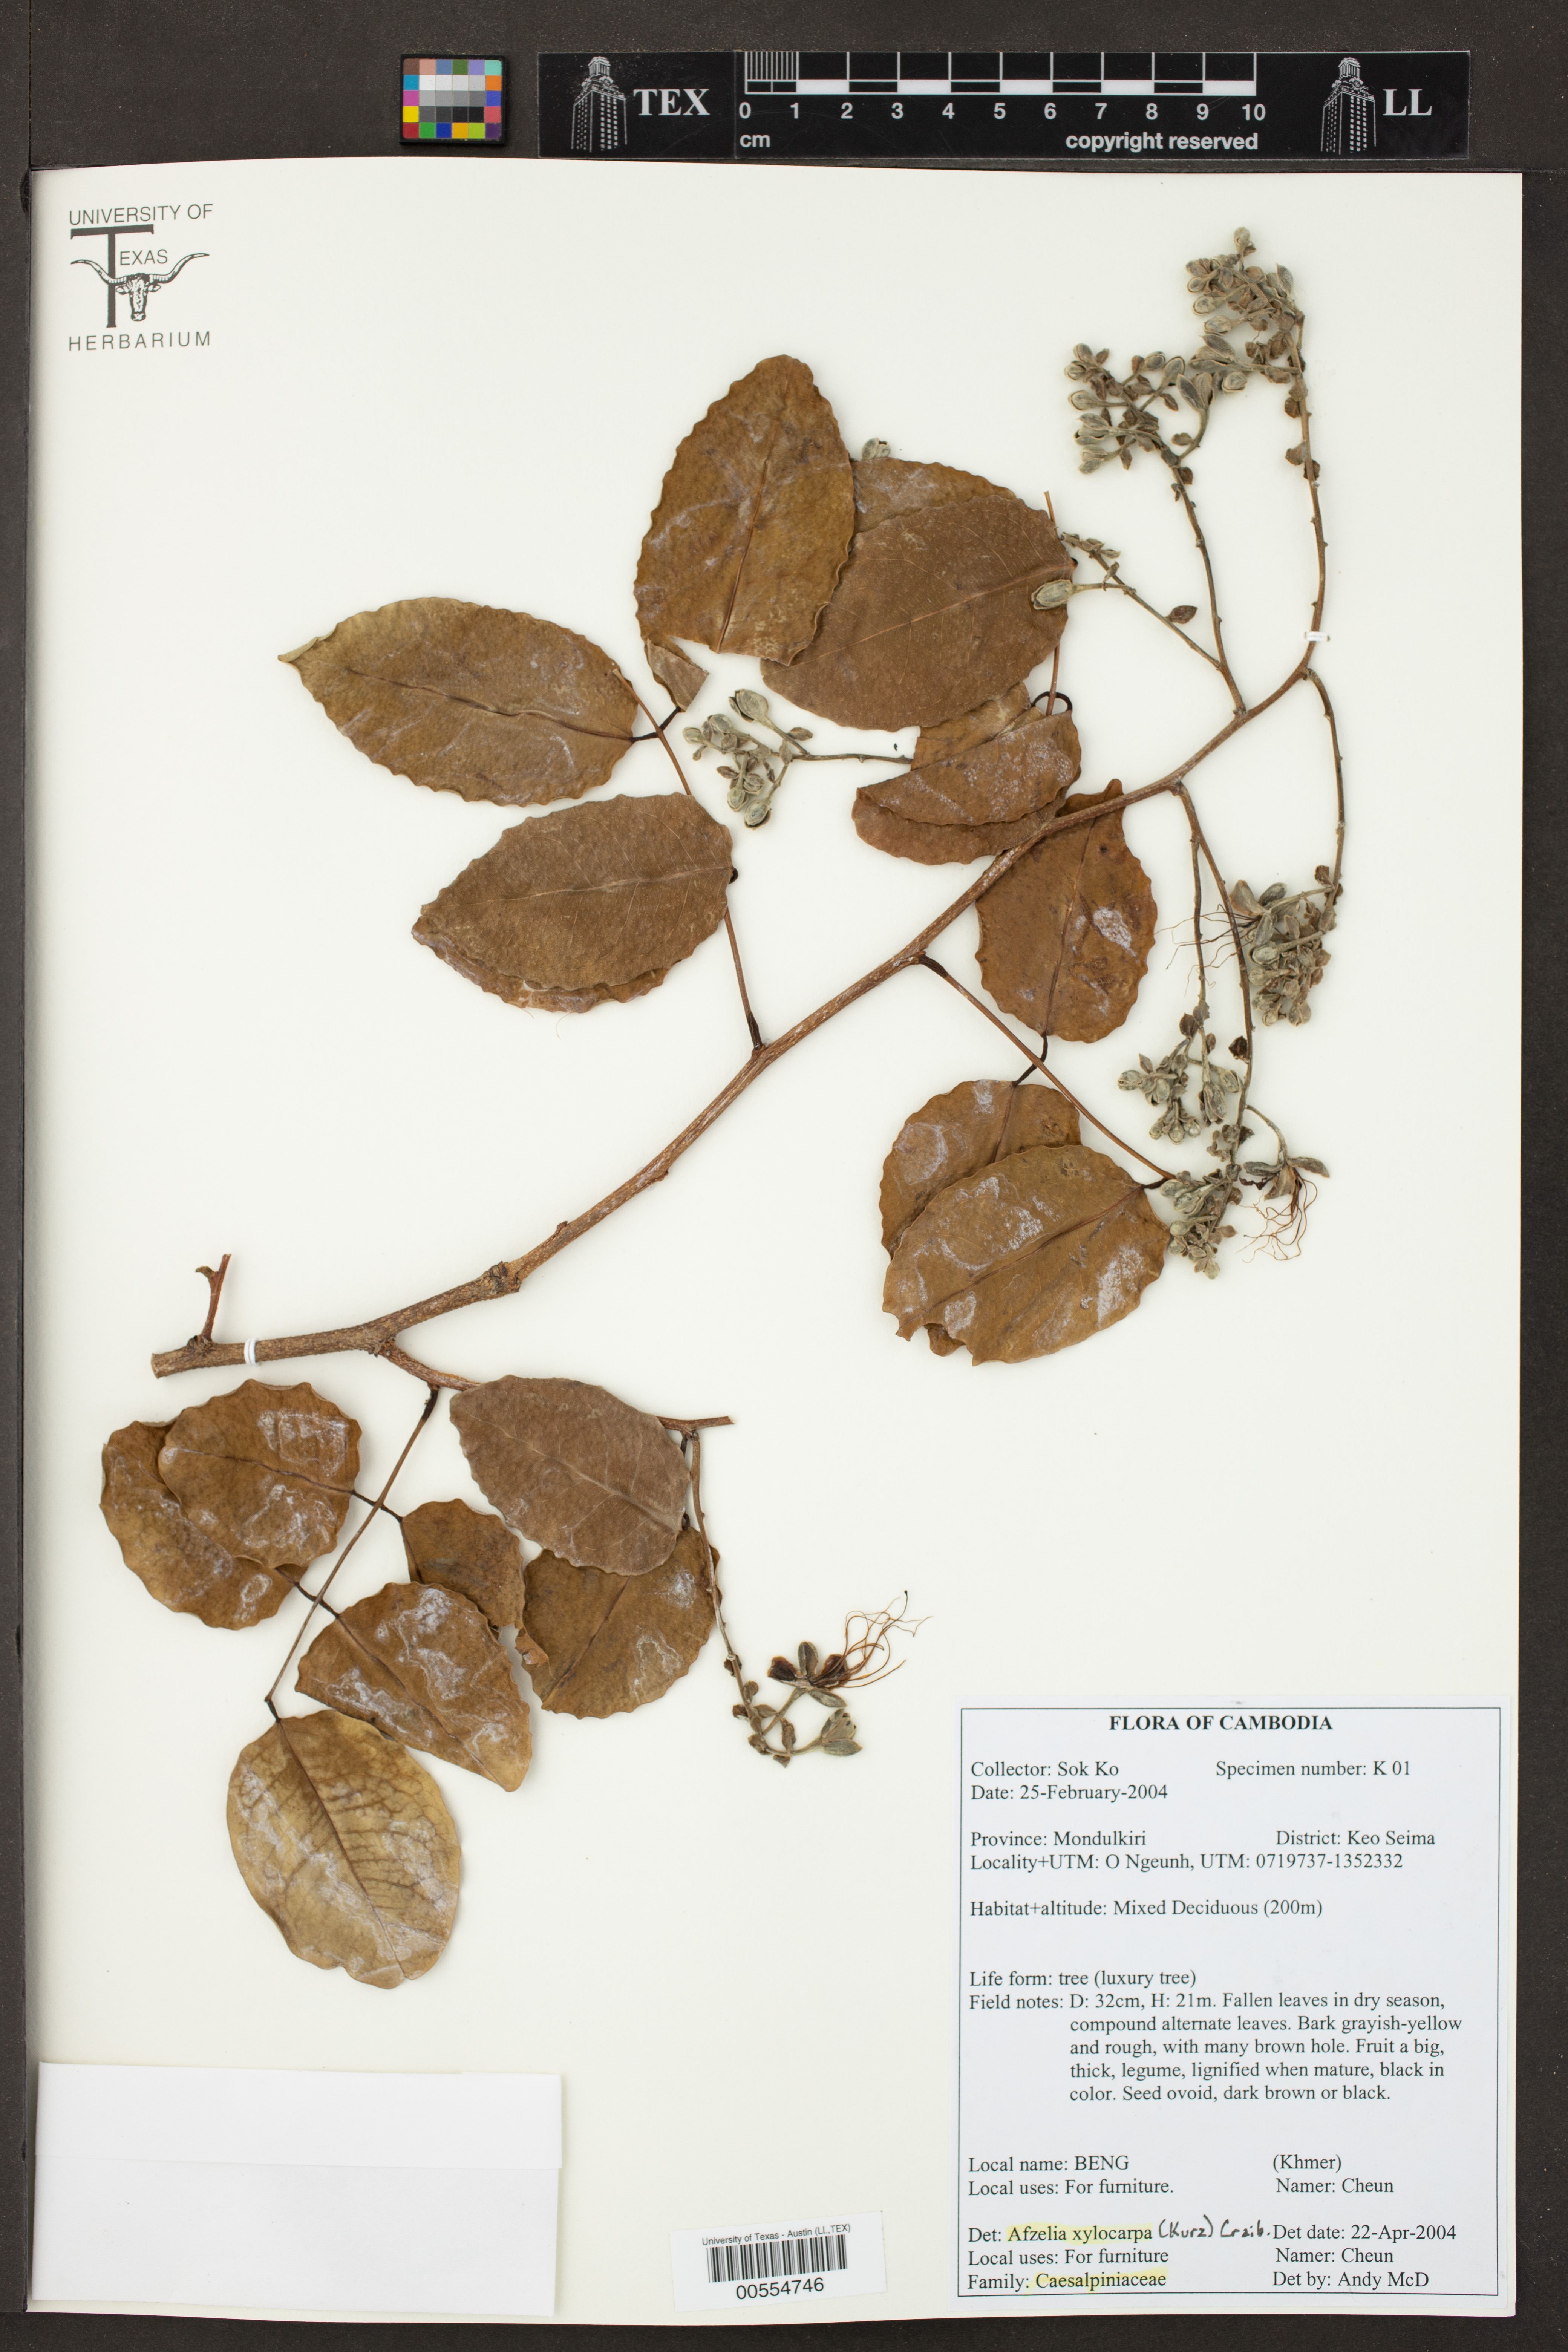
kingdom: Plantae
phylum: Tracheophyta
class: Magnoliopsida
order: Fabales
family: Fabaceae
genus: Afzelia
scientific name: Afzelia xylocarpa
